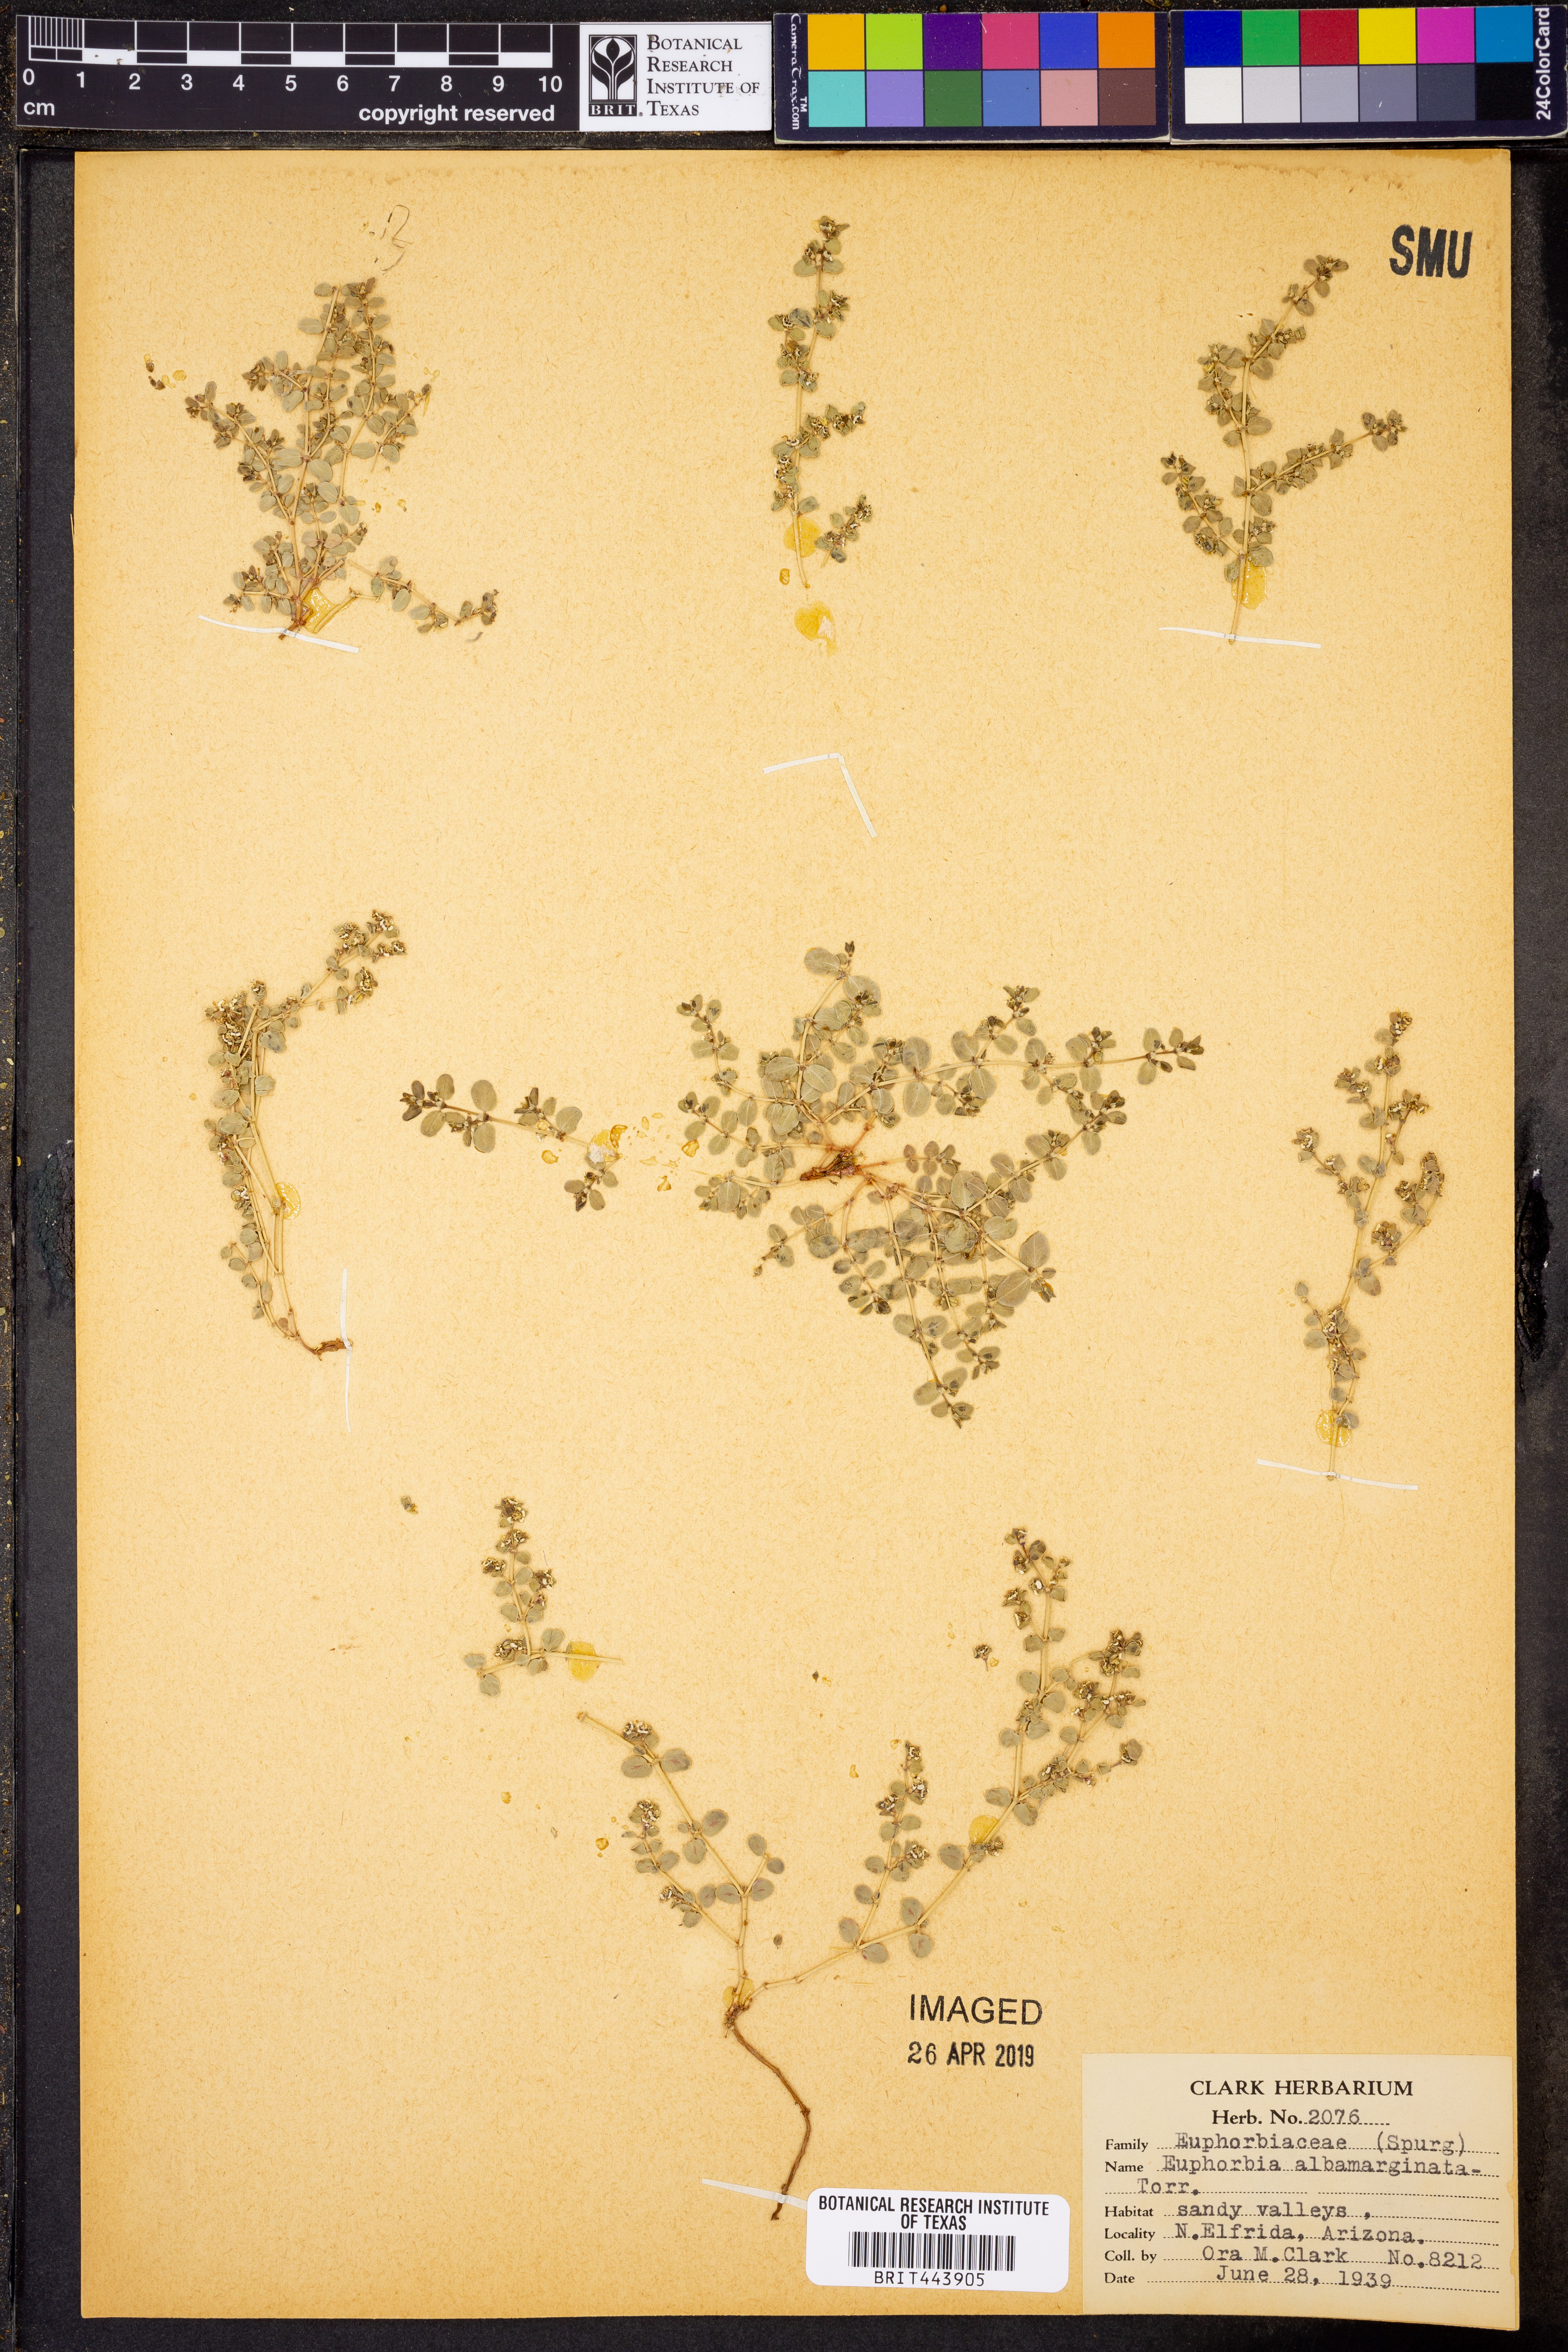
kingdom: Plantae
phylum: Tracheophyta
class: Magnoliopsida
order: Malpighiales
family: Euphorbiaceae
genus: Euphorbia
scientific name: Euphorbia albomarginata
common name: Whitemargin sandmat
